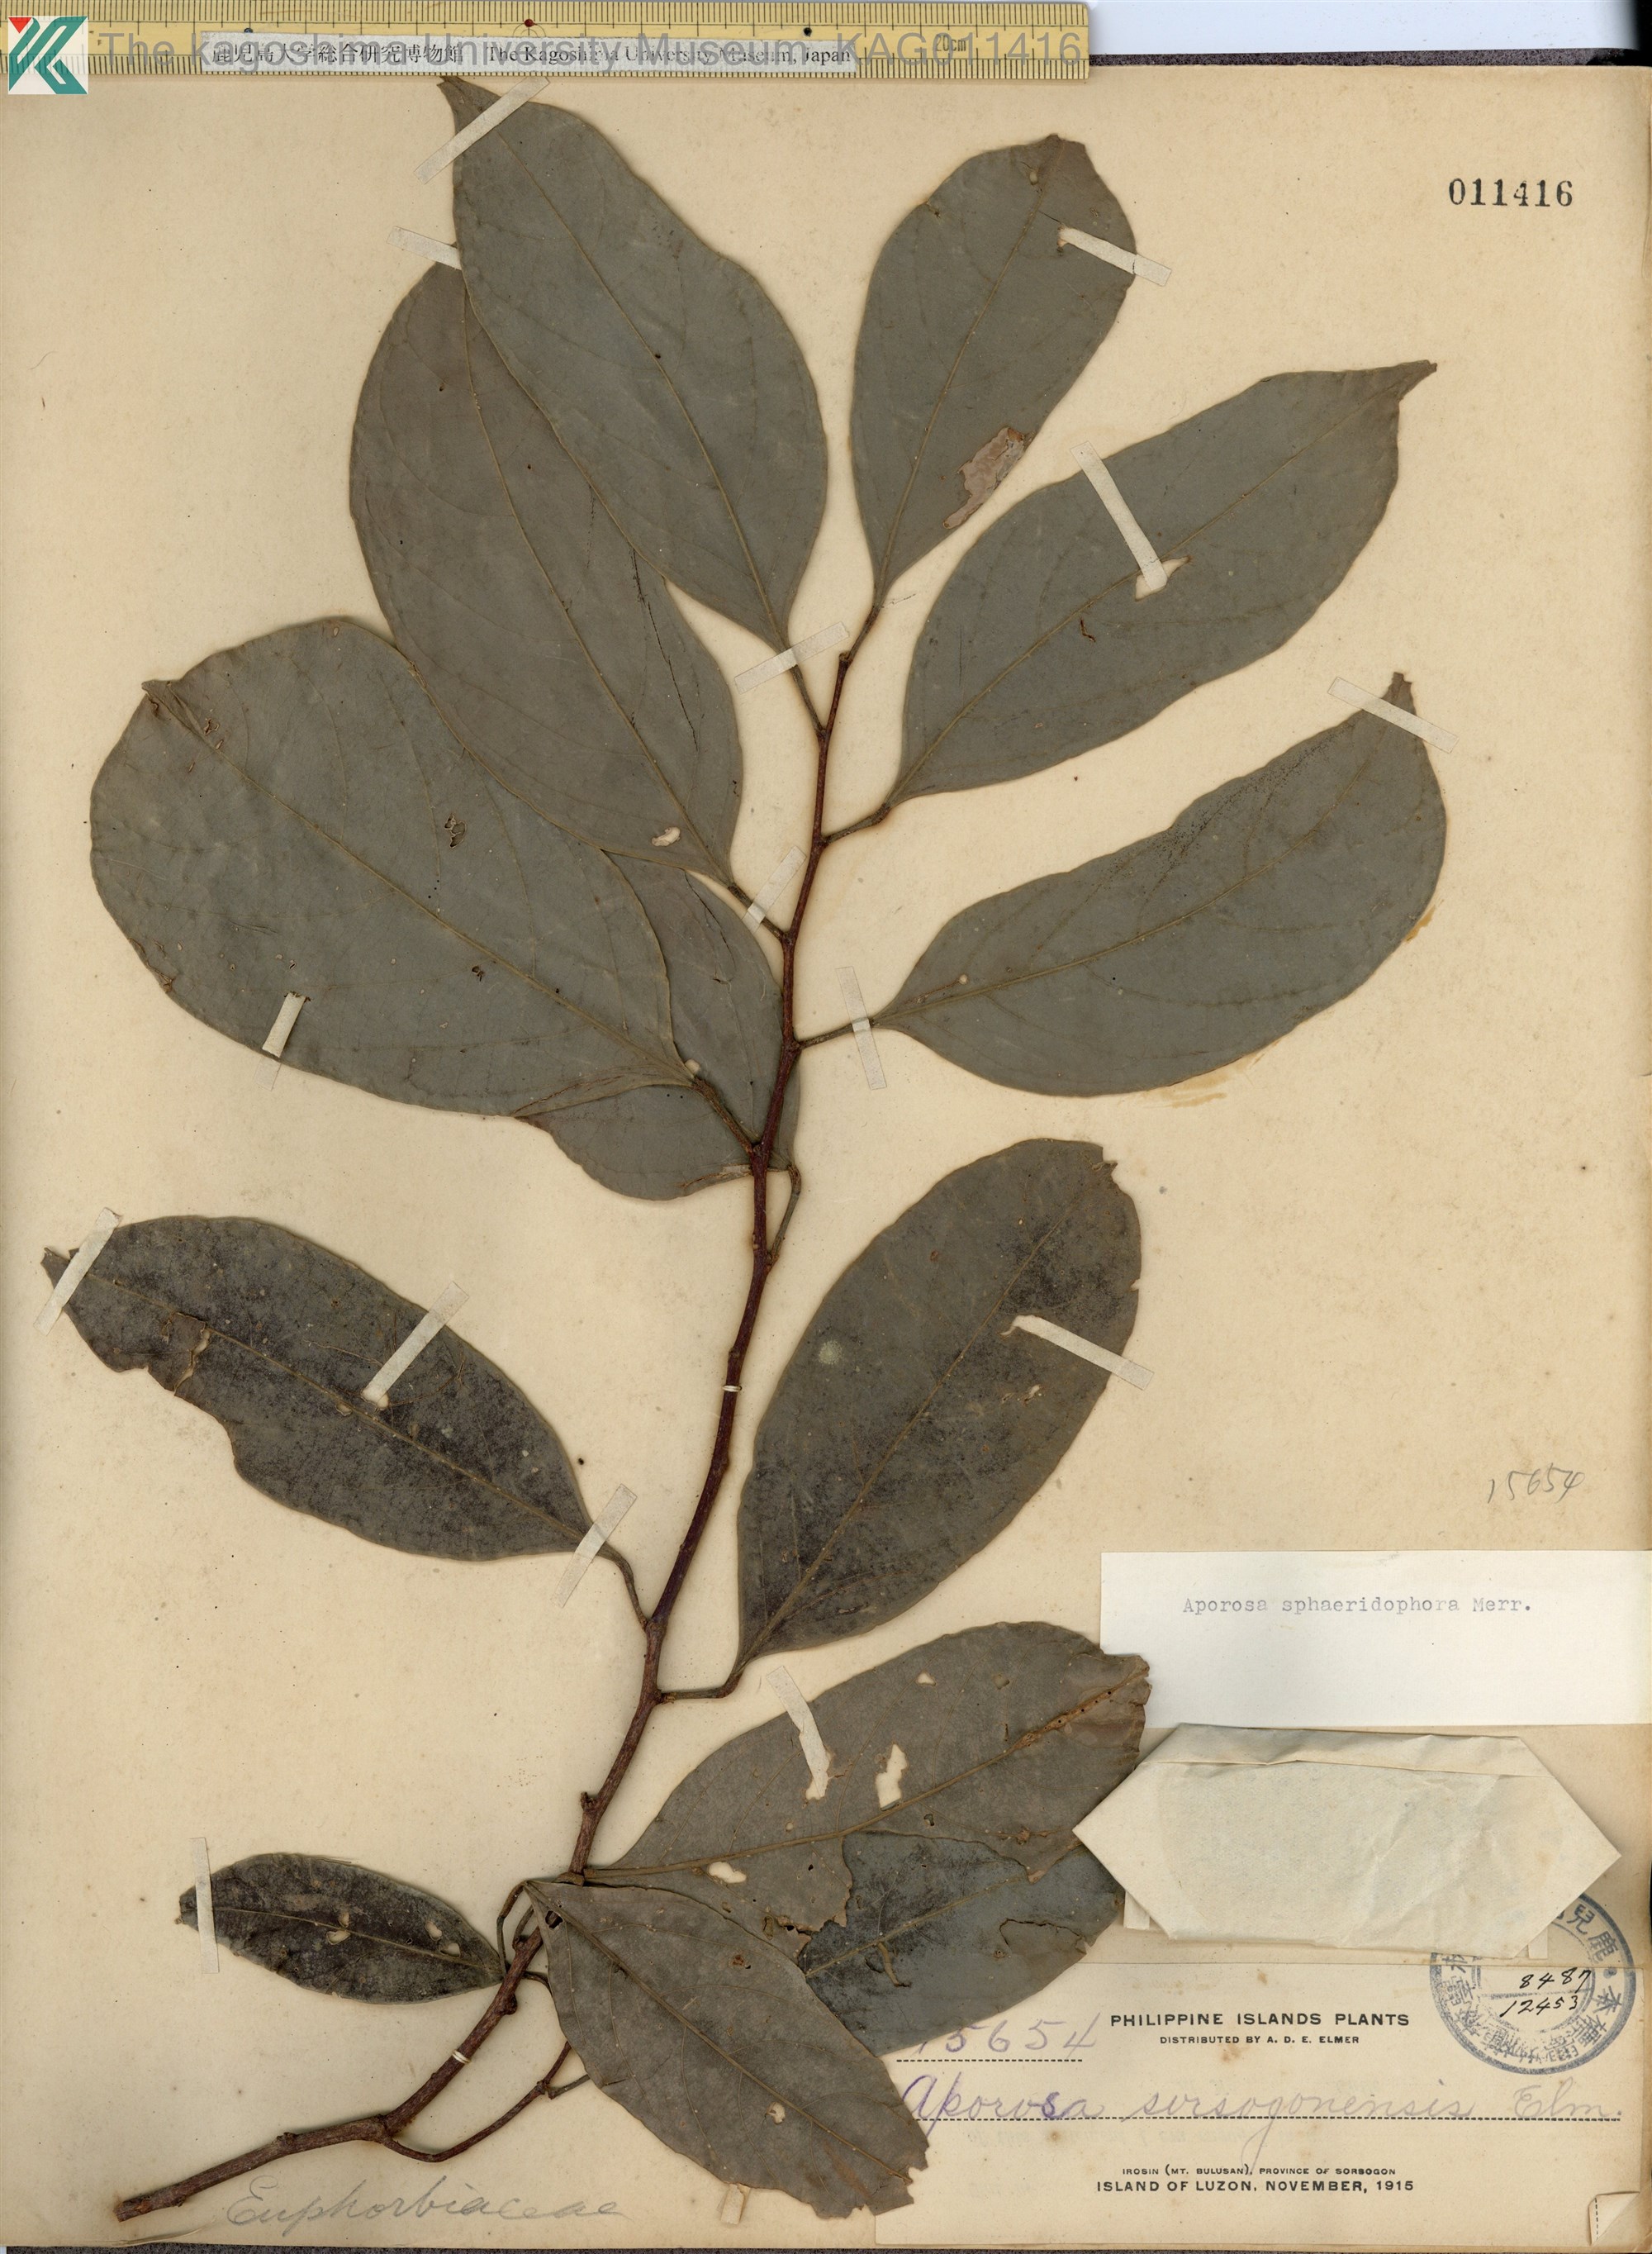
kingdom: Plantae
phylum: Tracheophyta
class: Magnoliopsida
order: Malpighiales
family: Phyllanthaceae
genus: Aporosa
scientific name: Aporosa
